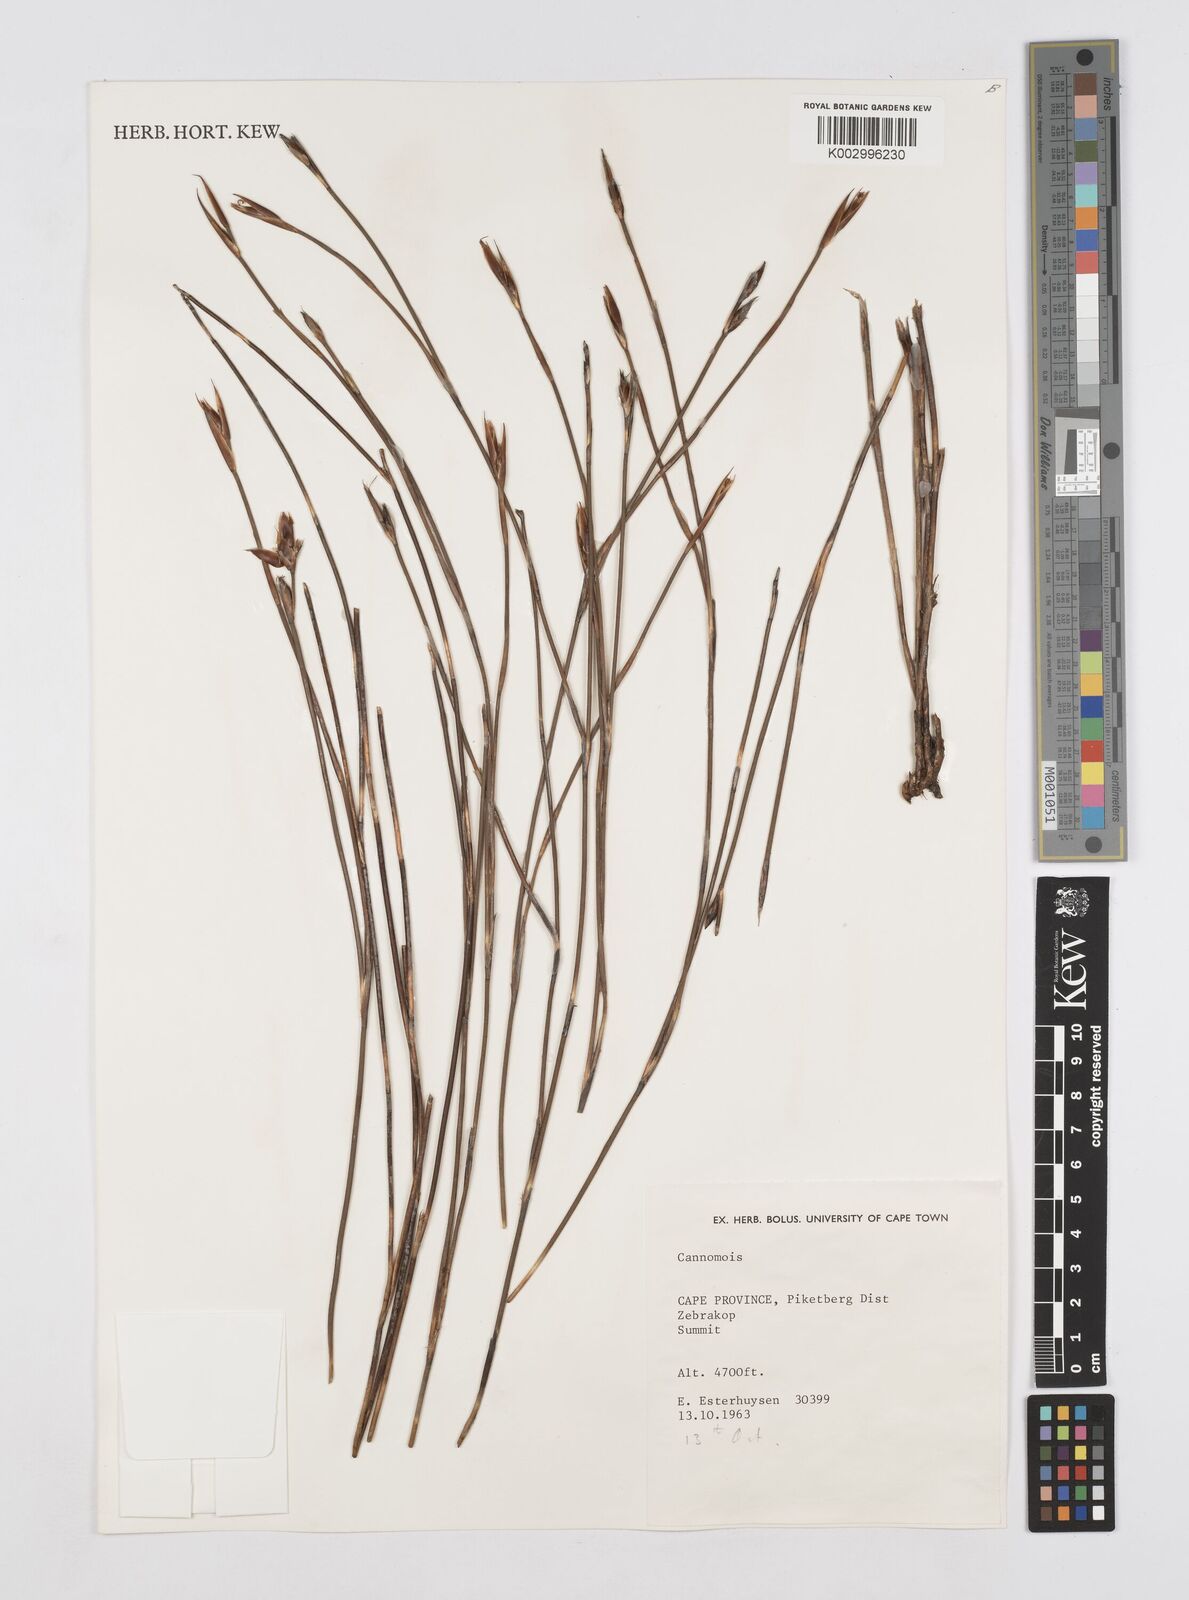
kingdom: Plantae
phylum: Tracheophyta
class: Liliopsida
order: Poales
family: Restionaceae
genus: Cannomois
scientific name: Cannomois
